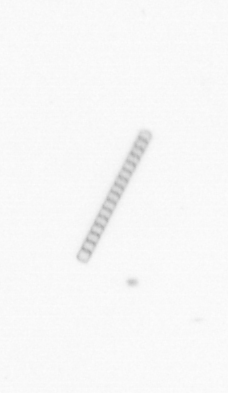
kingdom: Chromista
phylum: Ochrophyta
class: Bacillariophyceae
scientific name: Bacillariophyceae
